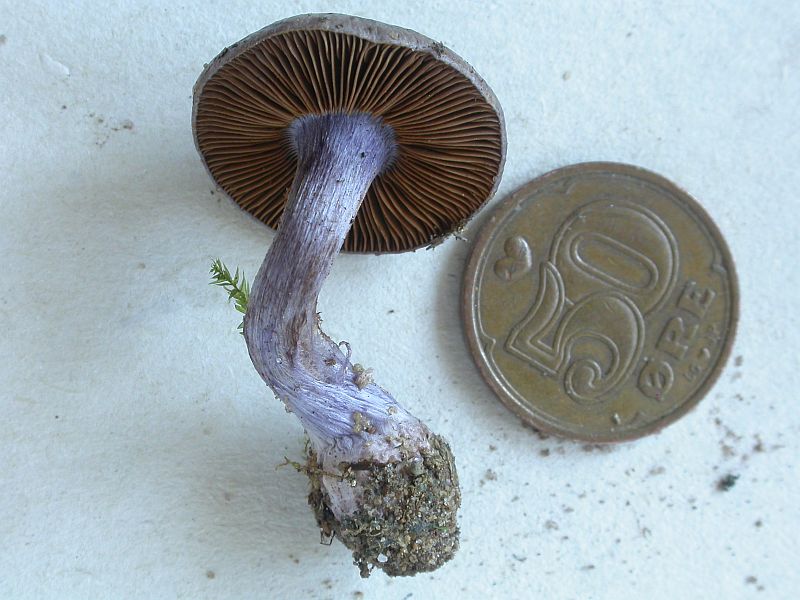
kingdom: Fungi
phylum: Basidiomycota
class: Agaricomycetes
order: Agaricales
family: Cortinariaceae
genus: Thaxterogaster
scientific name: Thaxterogaster subporphyropus
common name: ametyst-slørhat
